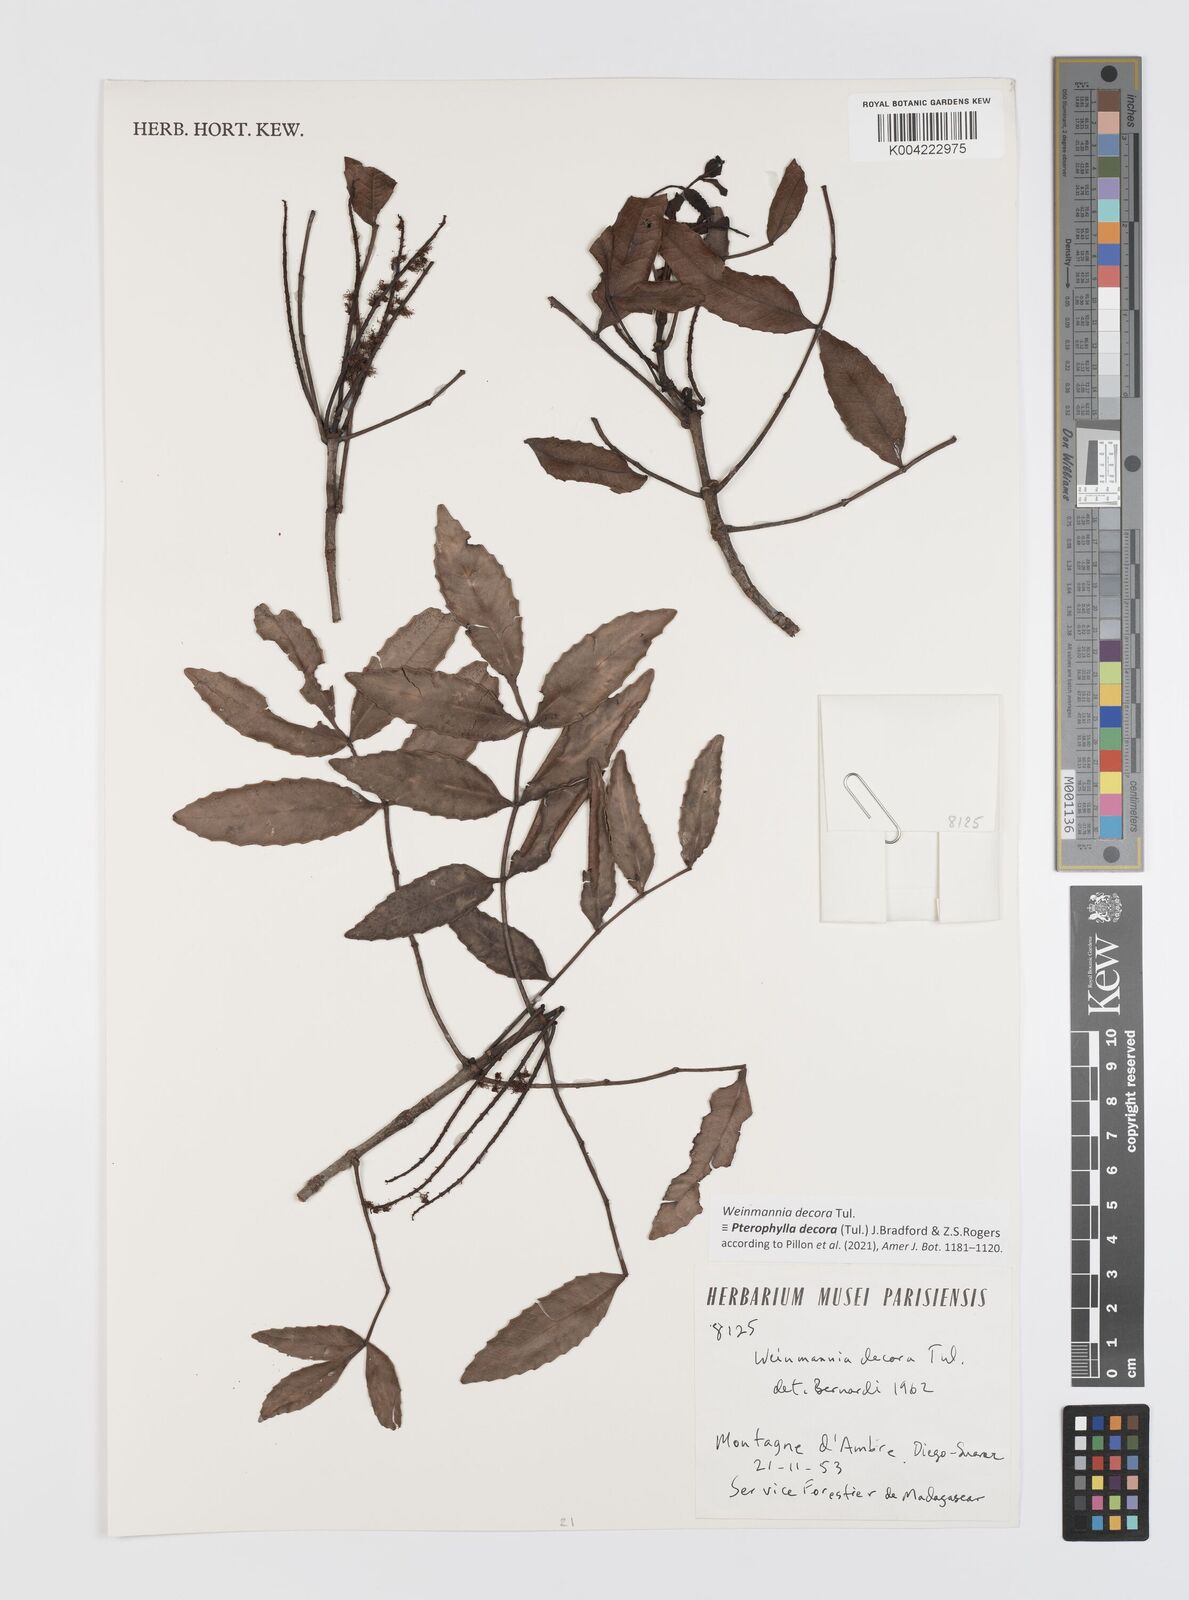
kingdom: Plantae
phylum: Tracheophyta
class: Magnoliopsida
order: Oxalidales
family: Cunoniaceae
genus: Pterophylla
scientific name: Pterophylla decora
